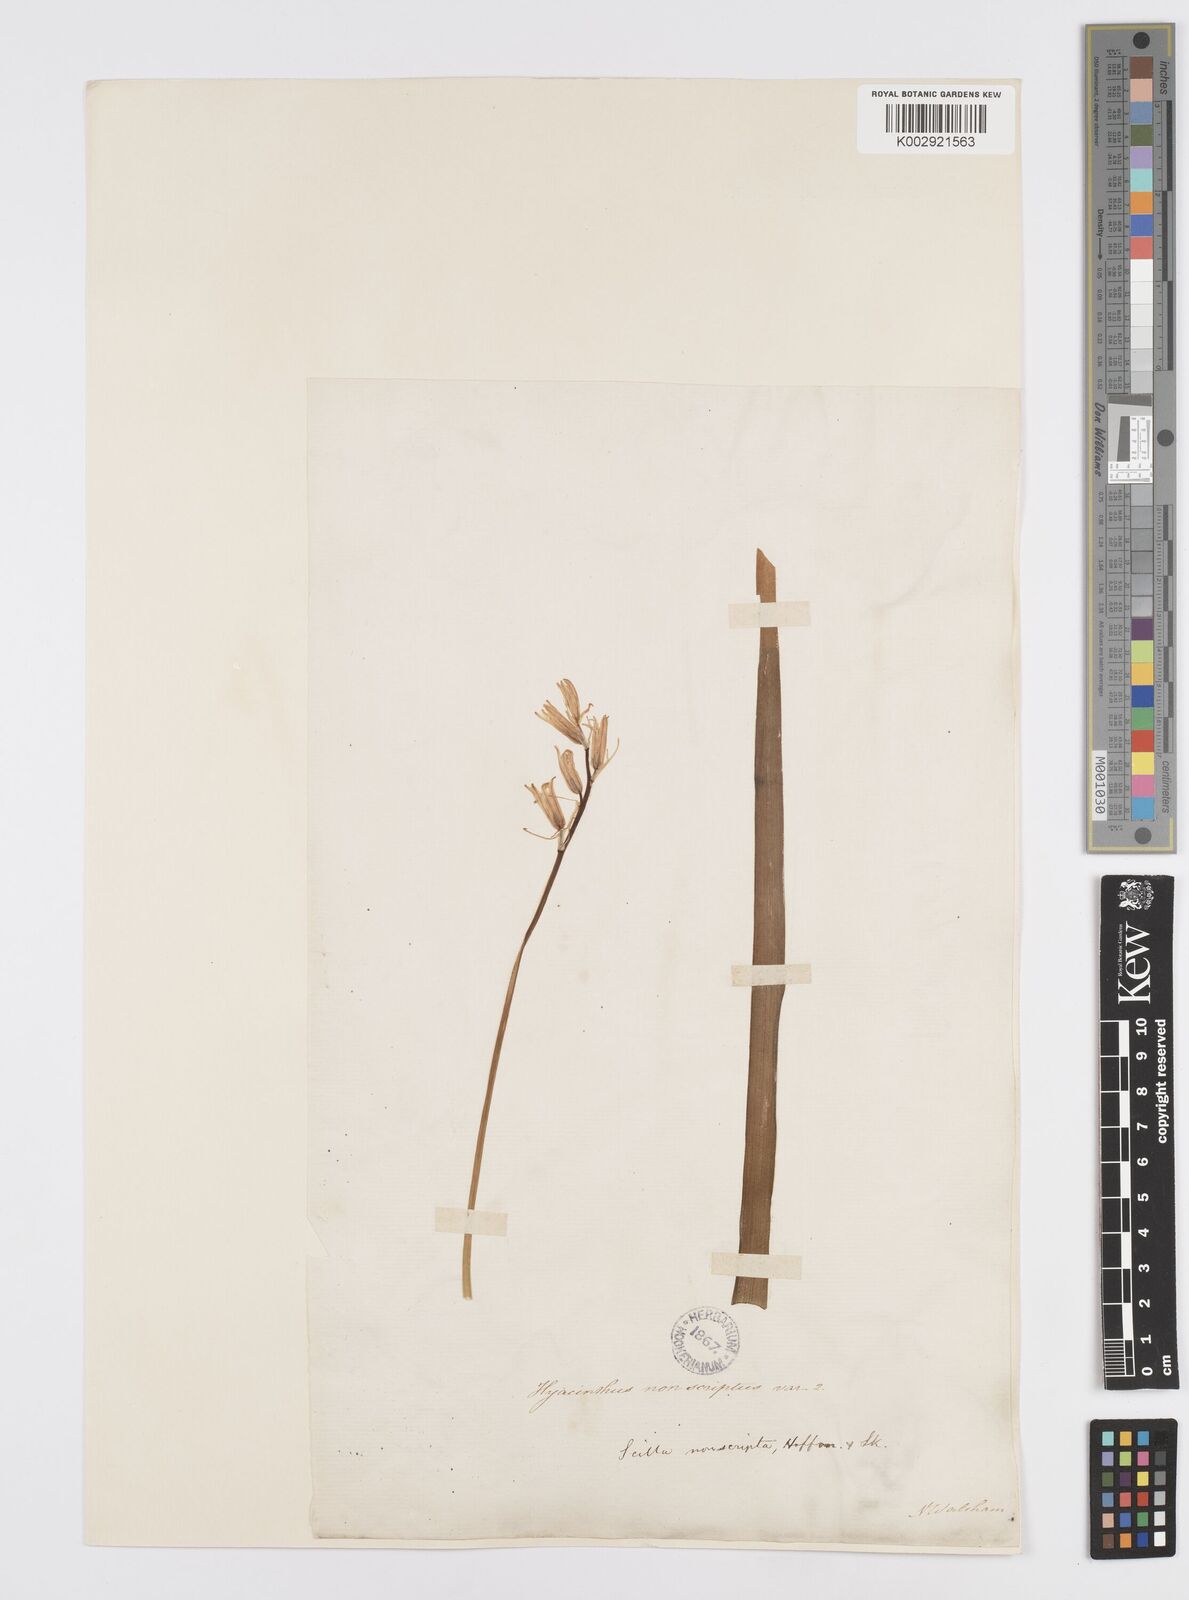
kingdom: Plantae
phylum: Tracheophyta
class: Liliopsida
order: Asparagales
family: Asparagaceae
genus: Hyacinthoides
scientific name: Hyacinthoides non-scripta
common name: Bluebell
